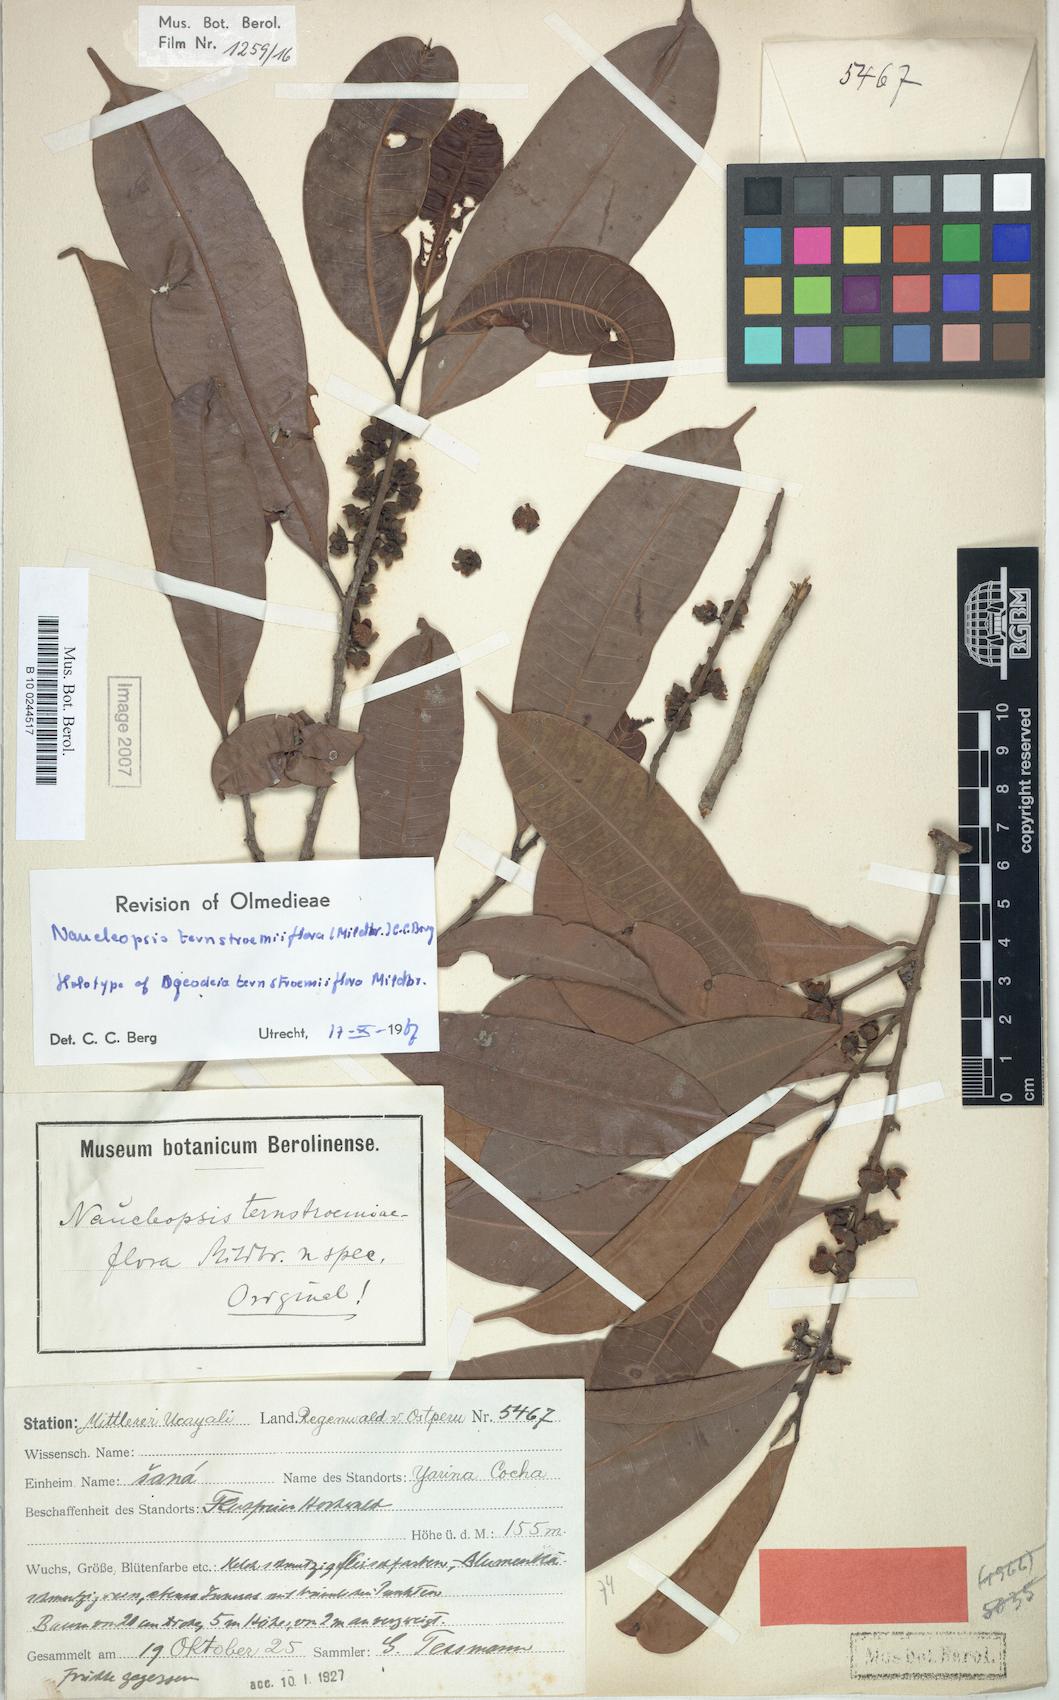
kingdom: Plantae
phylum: Tracheophyta
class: Magnoliopsida
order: Rosales
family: Moraceae
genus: Naucleopsis
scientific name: Naucleopsis ternstroemiiflora
